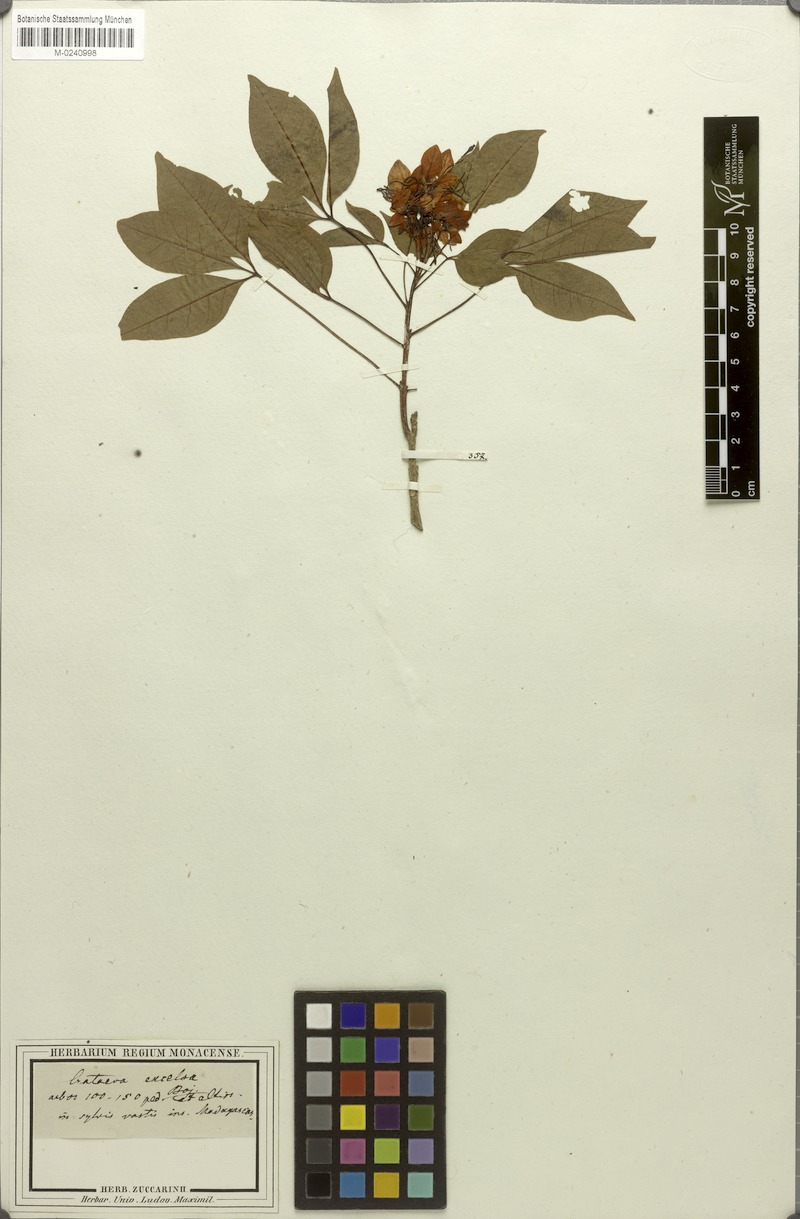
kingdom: Plantae
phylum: Tracheophyta
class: Magnoliopsida
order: Brassicales
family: Capparaceae
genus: Crateva
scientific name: Crateva excelsa
